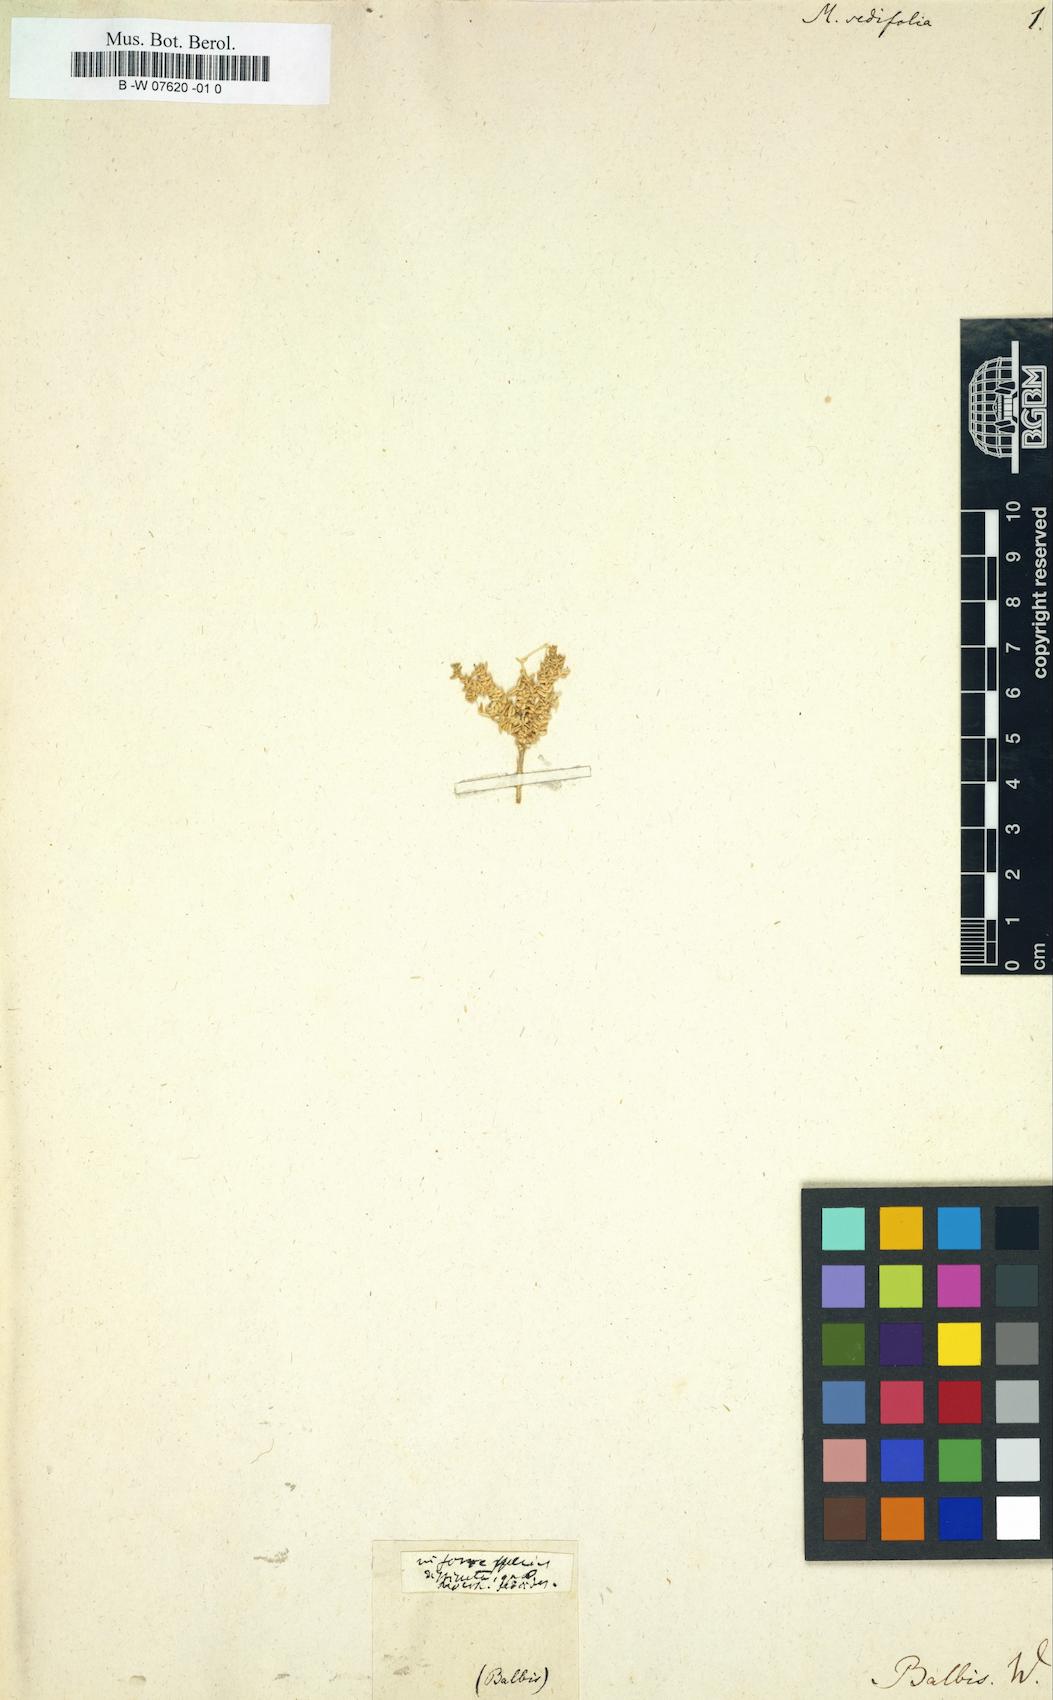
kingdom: Plantae
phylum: Tracheophyta
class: Magnoliopsida
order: Caryophyllales
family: Caryophyllaceae
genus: Moehringia
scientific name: Moehringia
